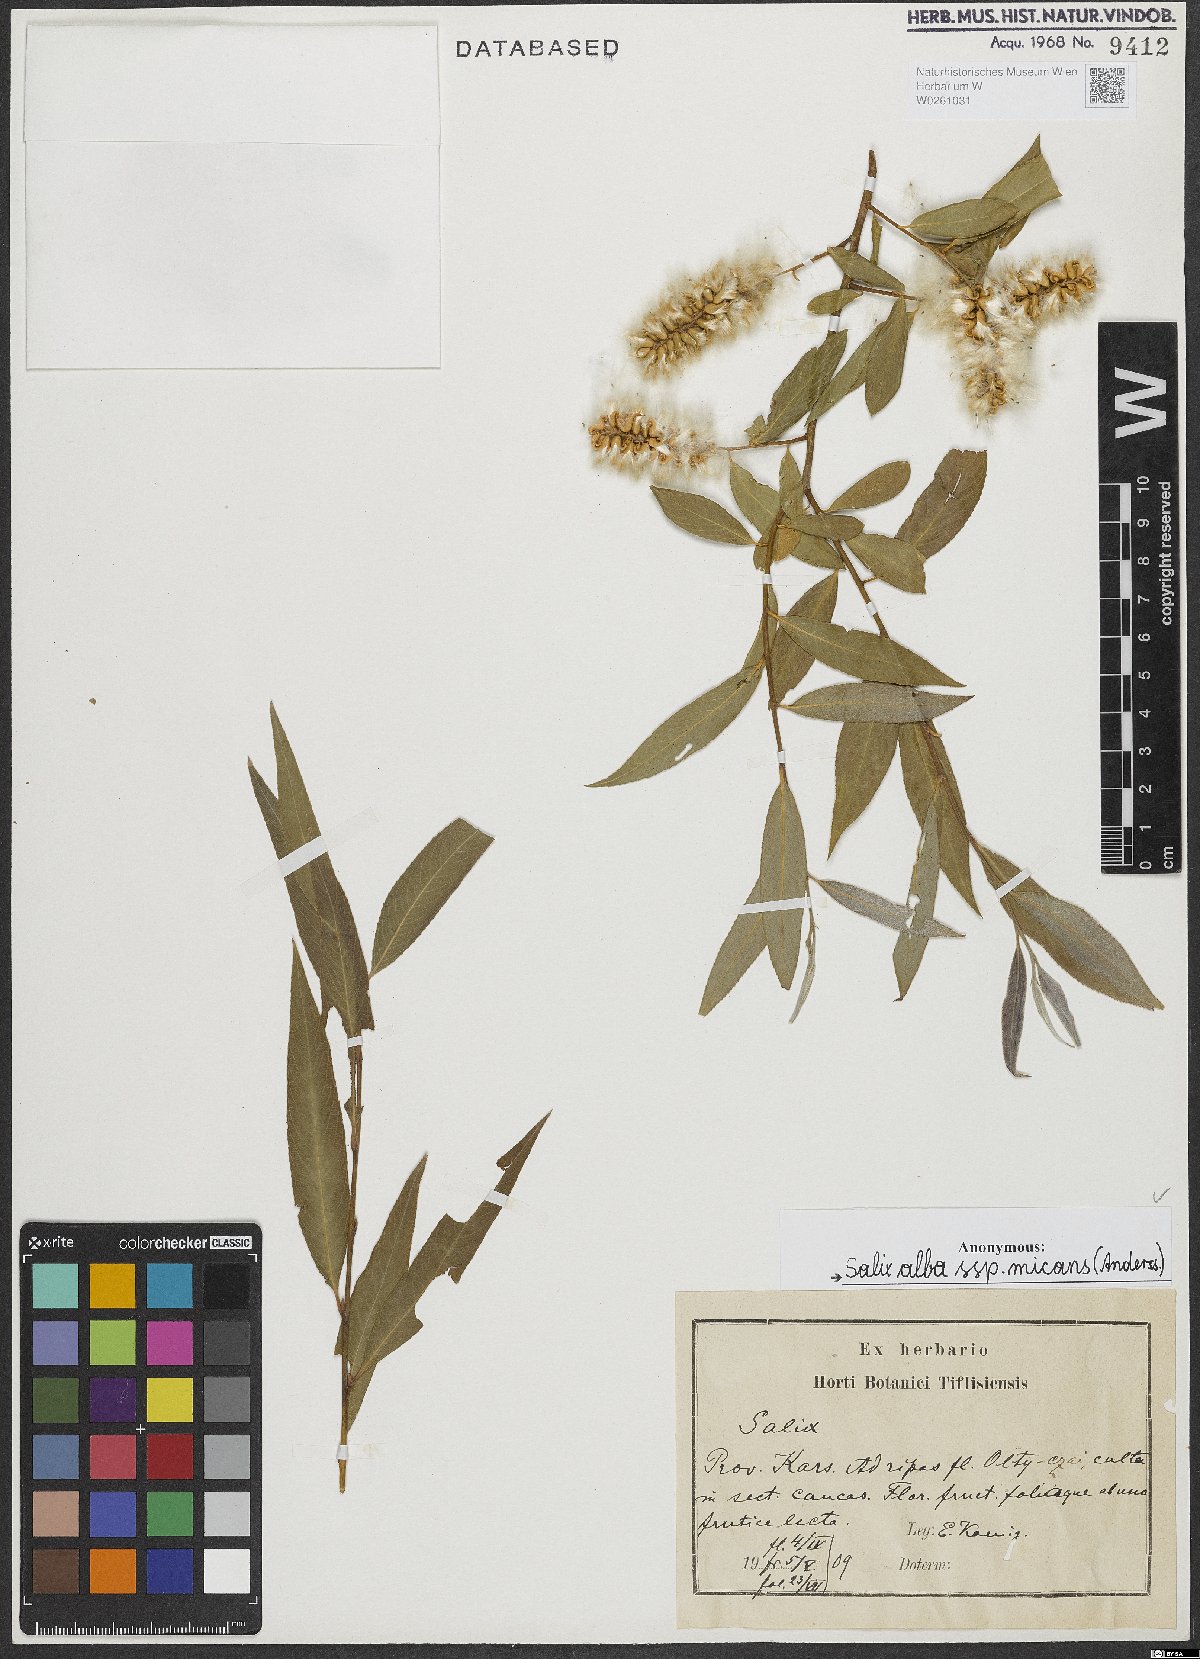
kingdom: Plantae
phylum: Tracheophyta
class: Magnoliopsida
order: Malpighiales
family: Salicaceae
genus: Salix
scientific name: Salix alba
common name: White willow
